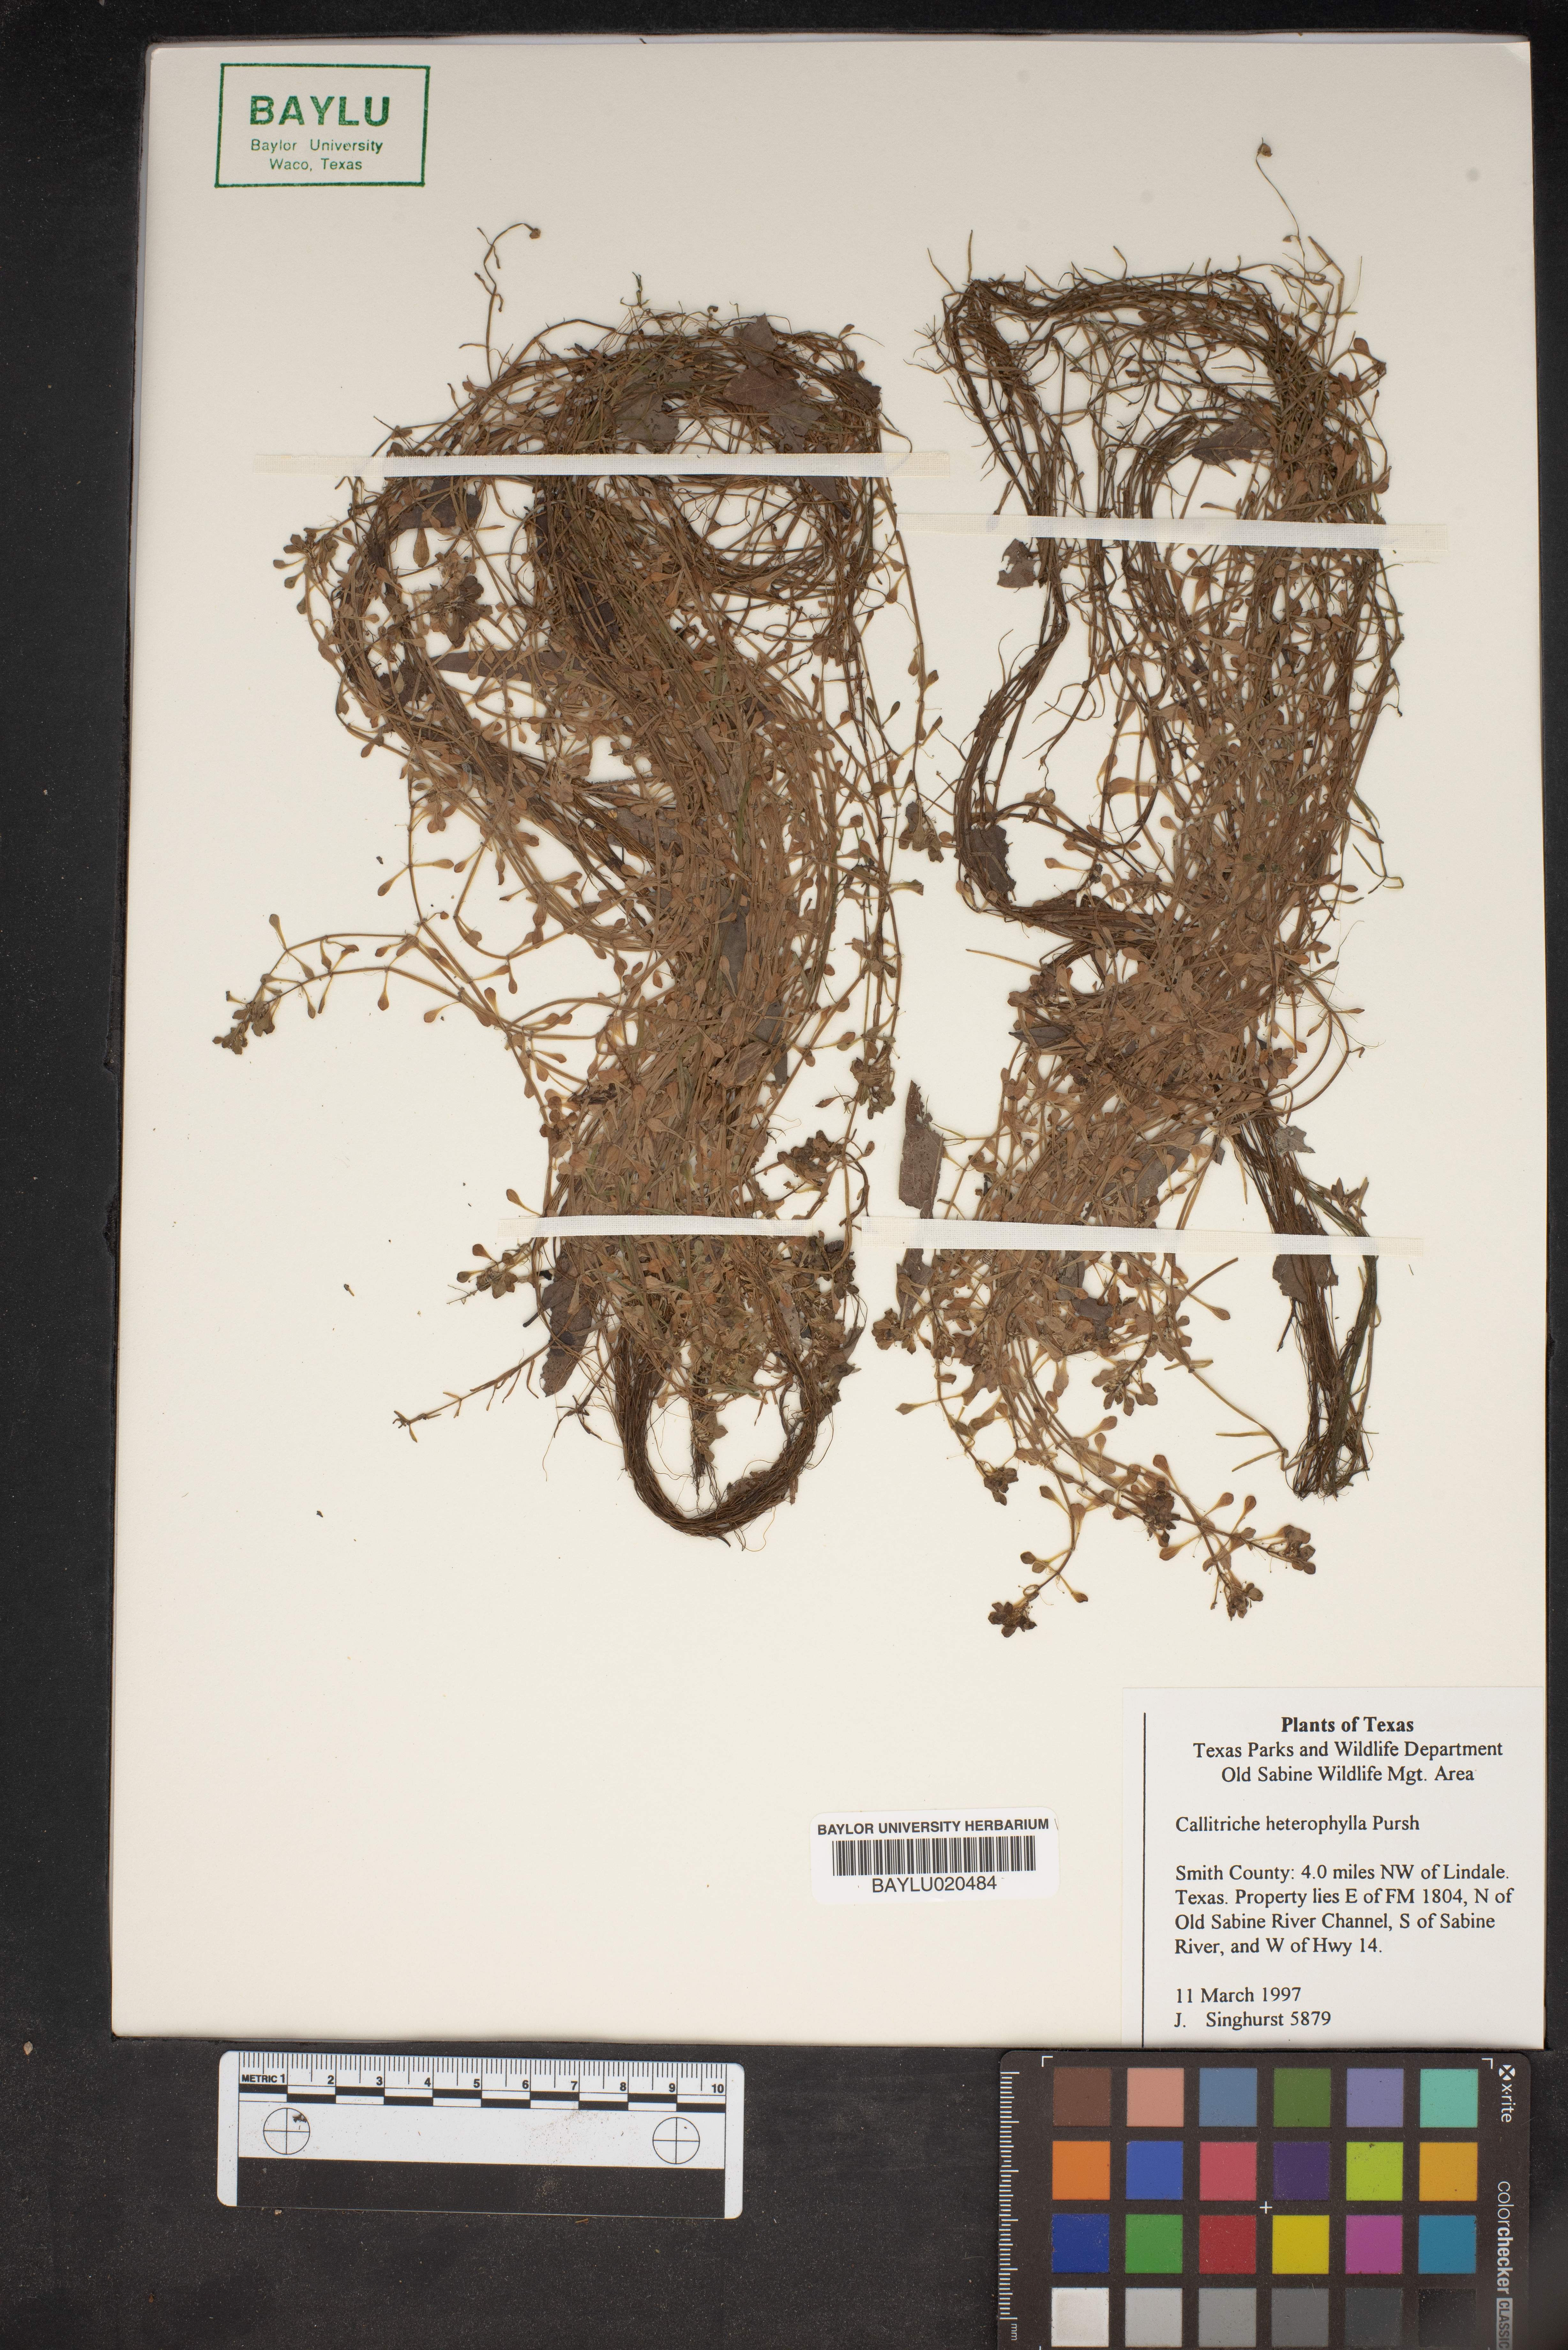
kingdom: Plantae
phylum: Tracheophyta
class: Magnoliopsida
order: Lamiales
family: Plantaginaceae
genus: Callitriche
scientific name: Callitriche heterophylla
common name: Two-headed water-starwort
